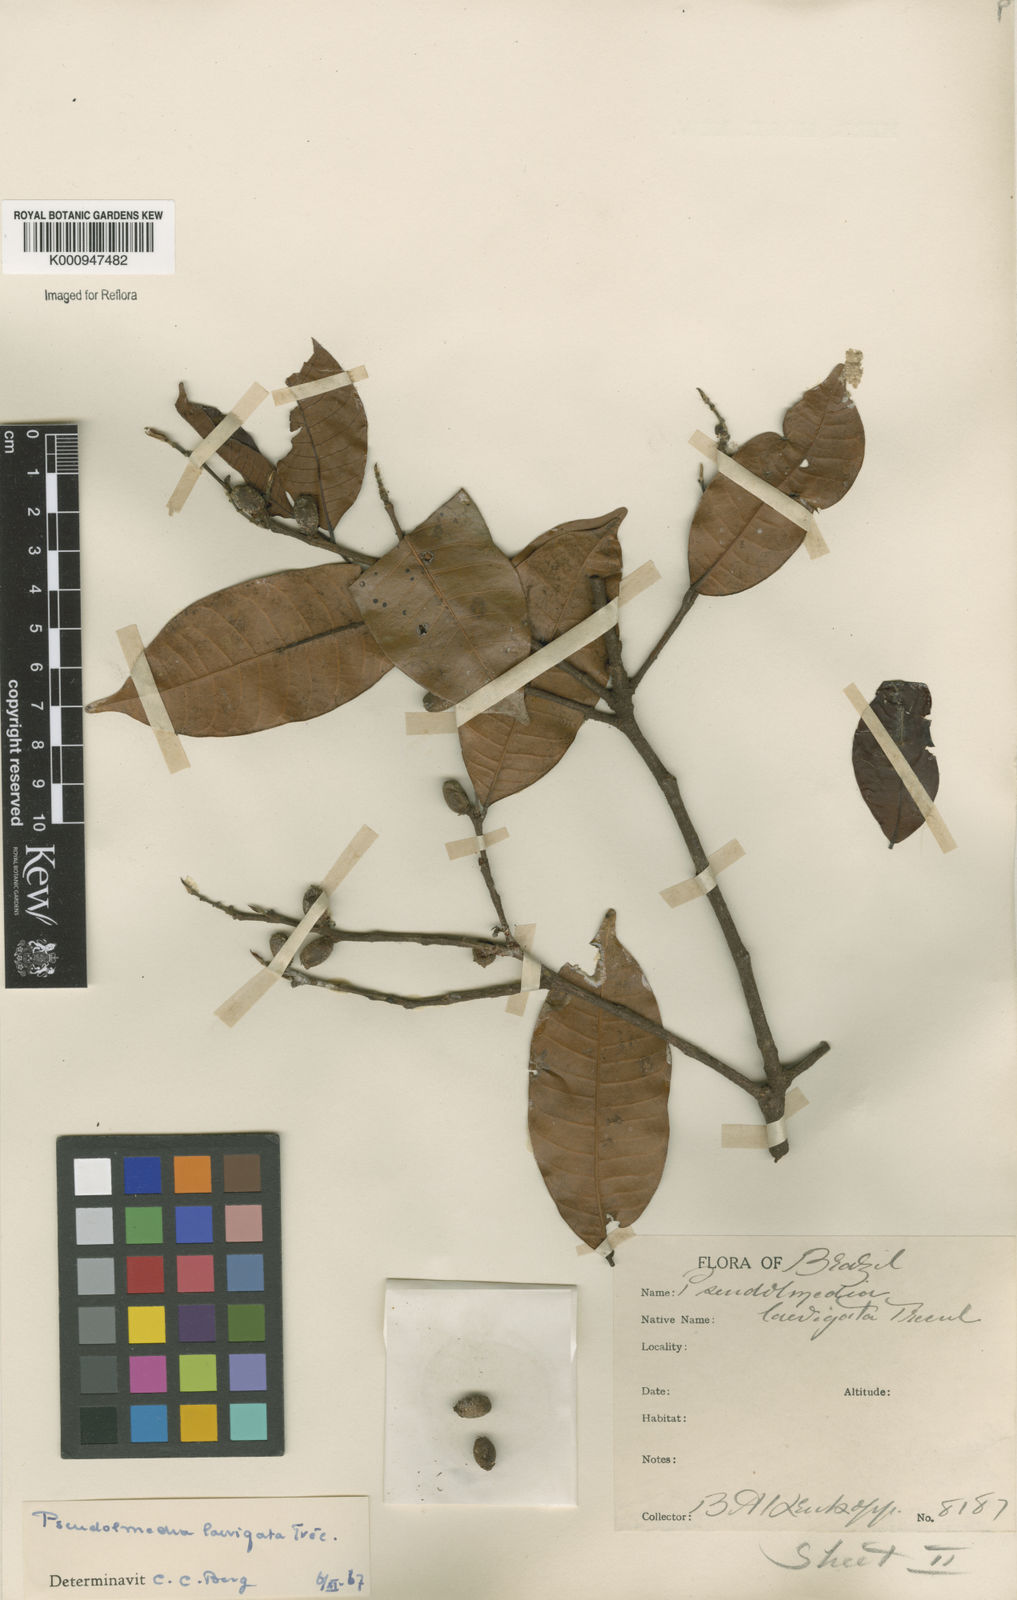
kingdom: Plantae
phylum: Tracheophyta
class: Magnoliopsida
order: Rosales
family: Moraceae
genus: Pseudolmedia
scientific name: Pseudolmedia
